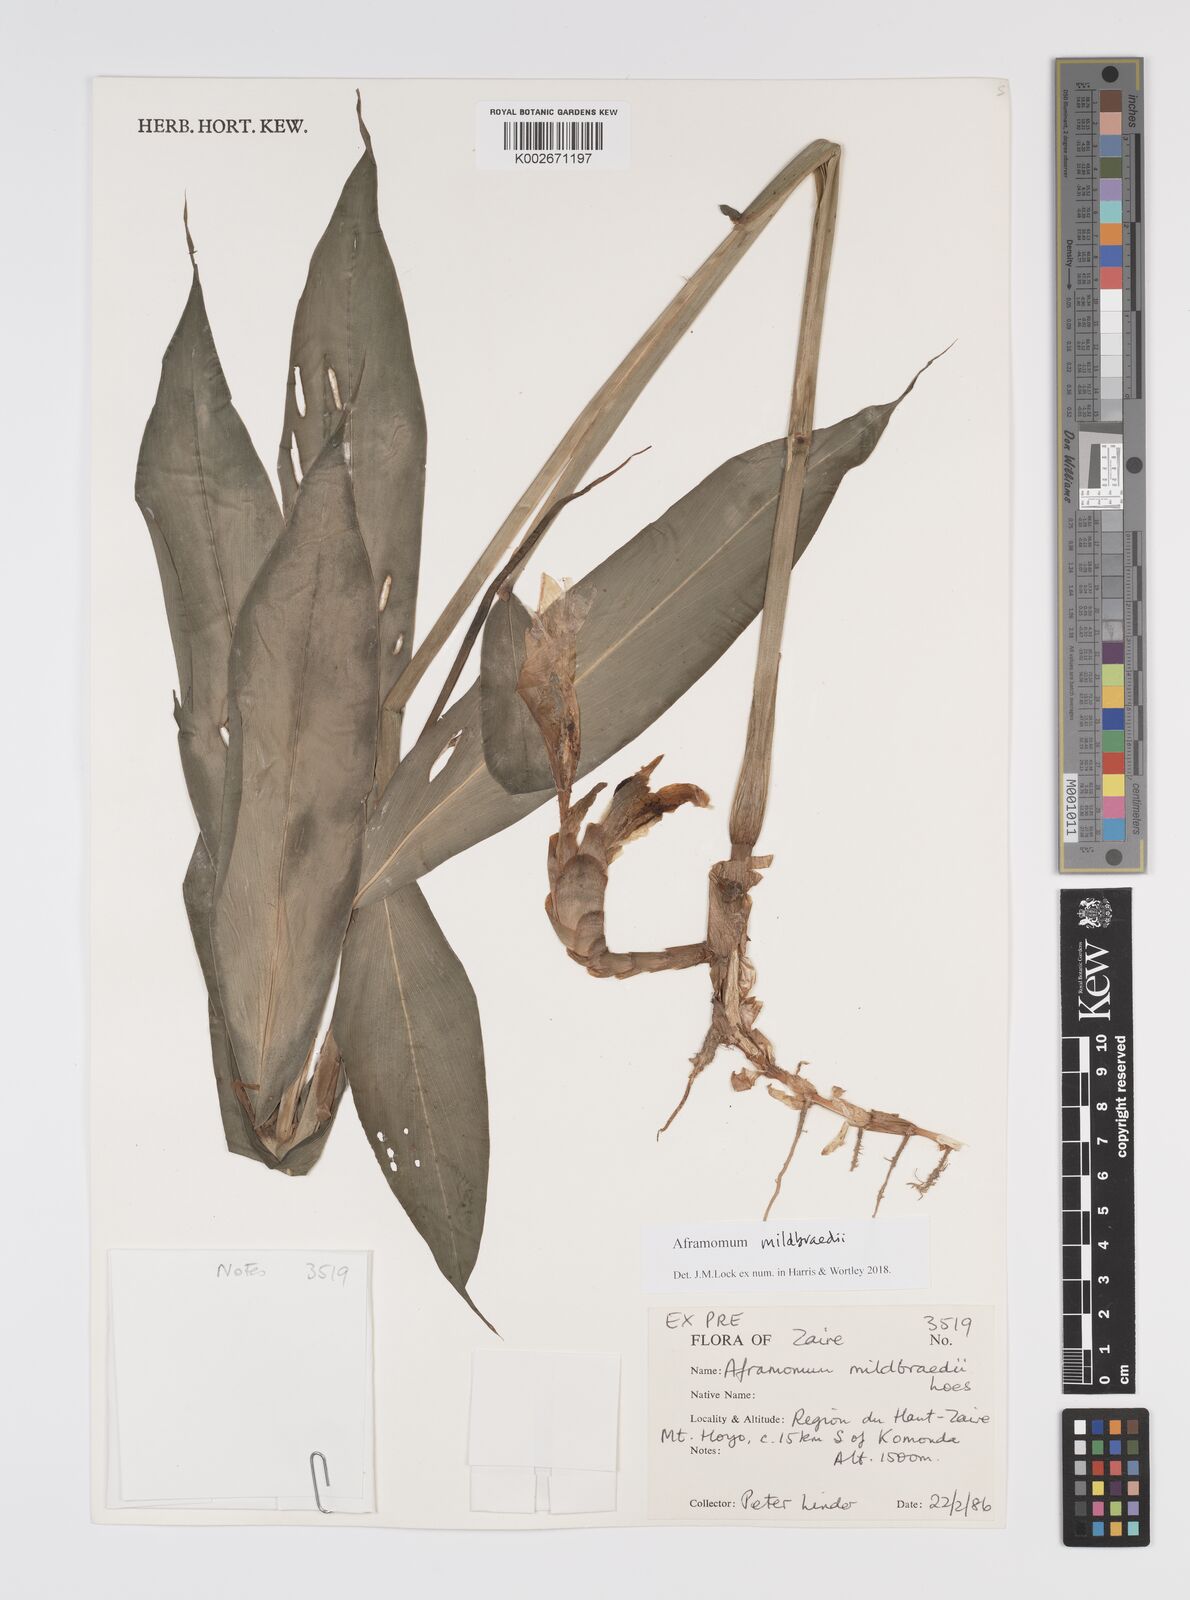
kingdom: Plantae
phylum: Tracheophyta
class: Liliopsida
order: Zingiberales
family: Zingiberaceae
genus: Aframomum
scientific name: Aframomum mildbraedii
